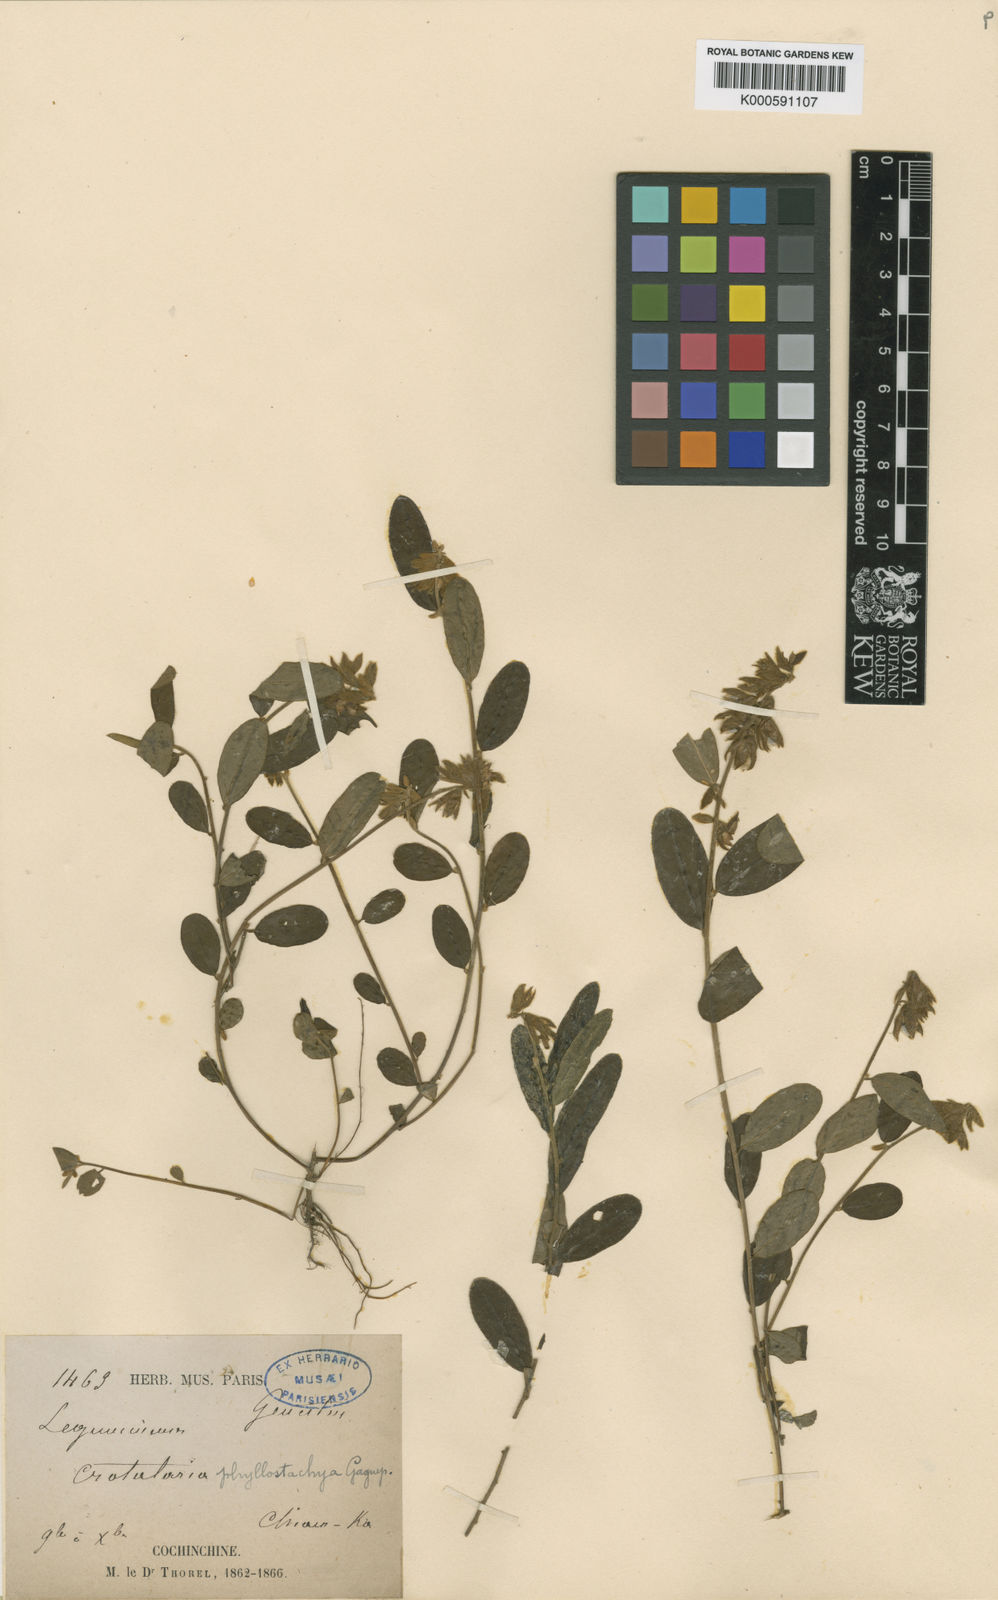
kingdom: Plantae
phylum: Tracheophyta
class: Magnoliopsida
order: Fabales
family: Fabaceae
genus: Crotalaria
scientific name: Crotalaria phyllostachya
